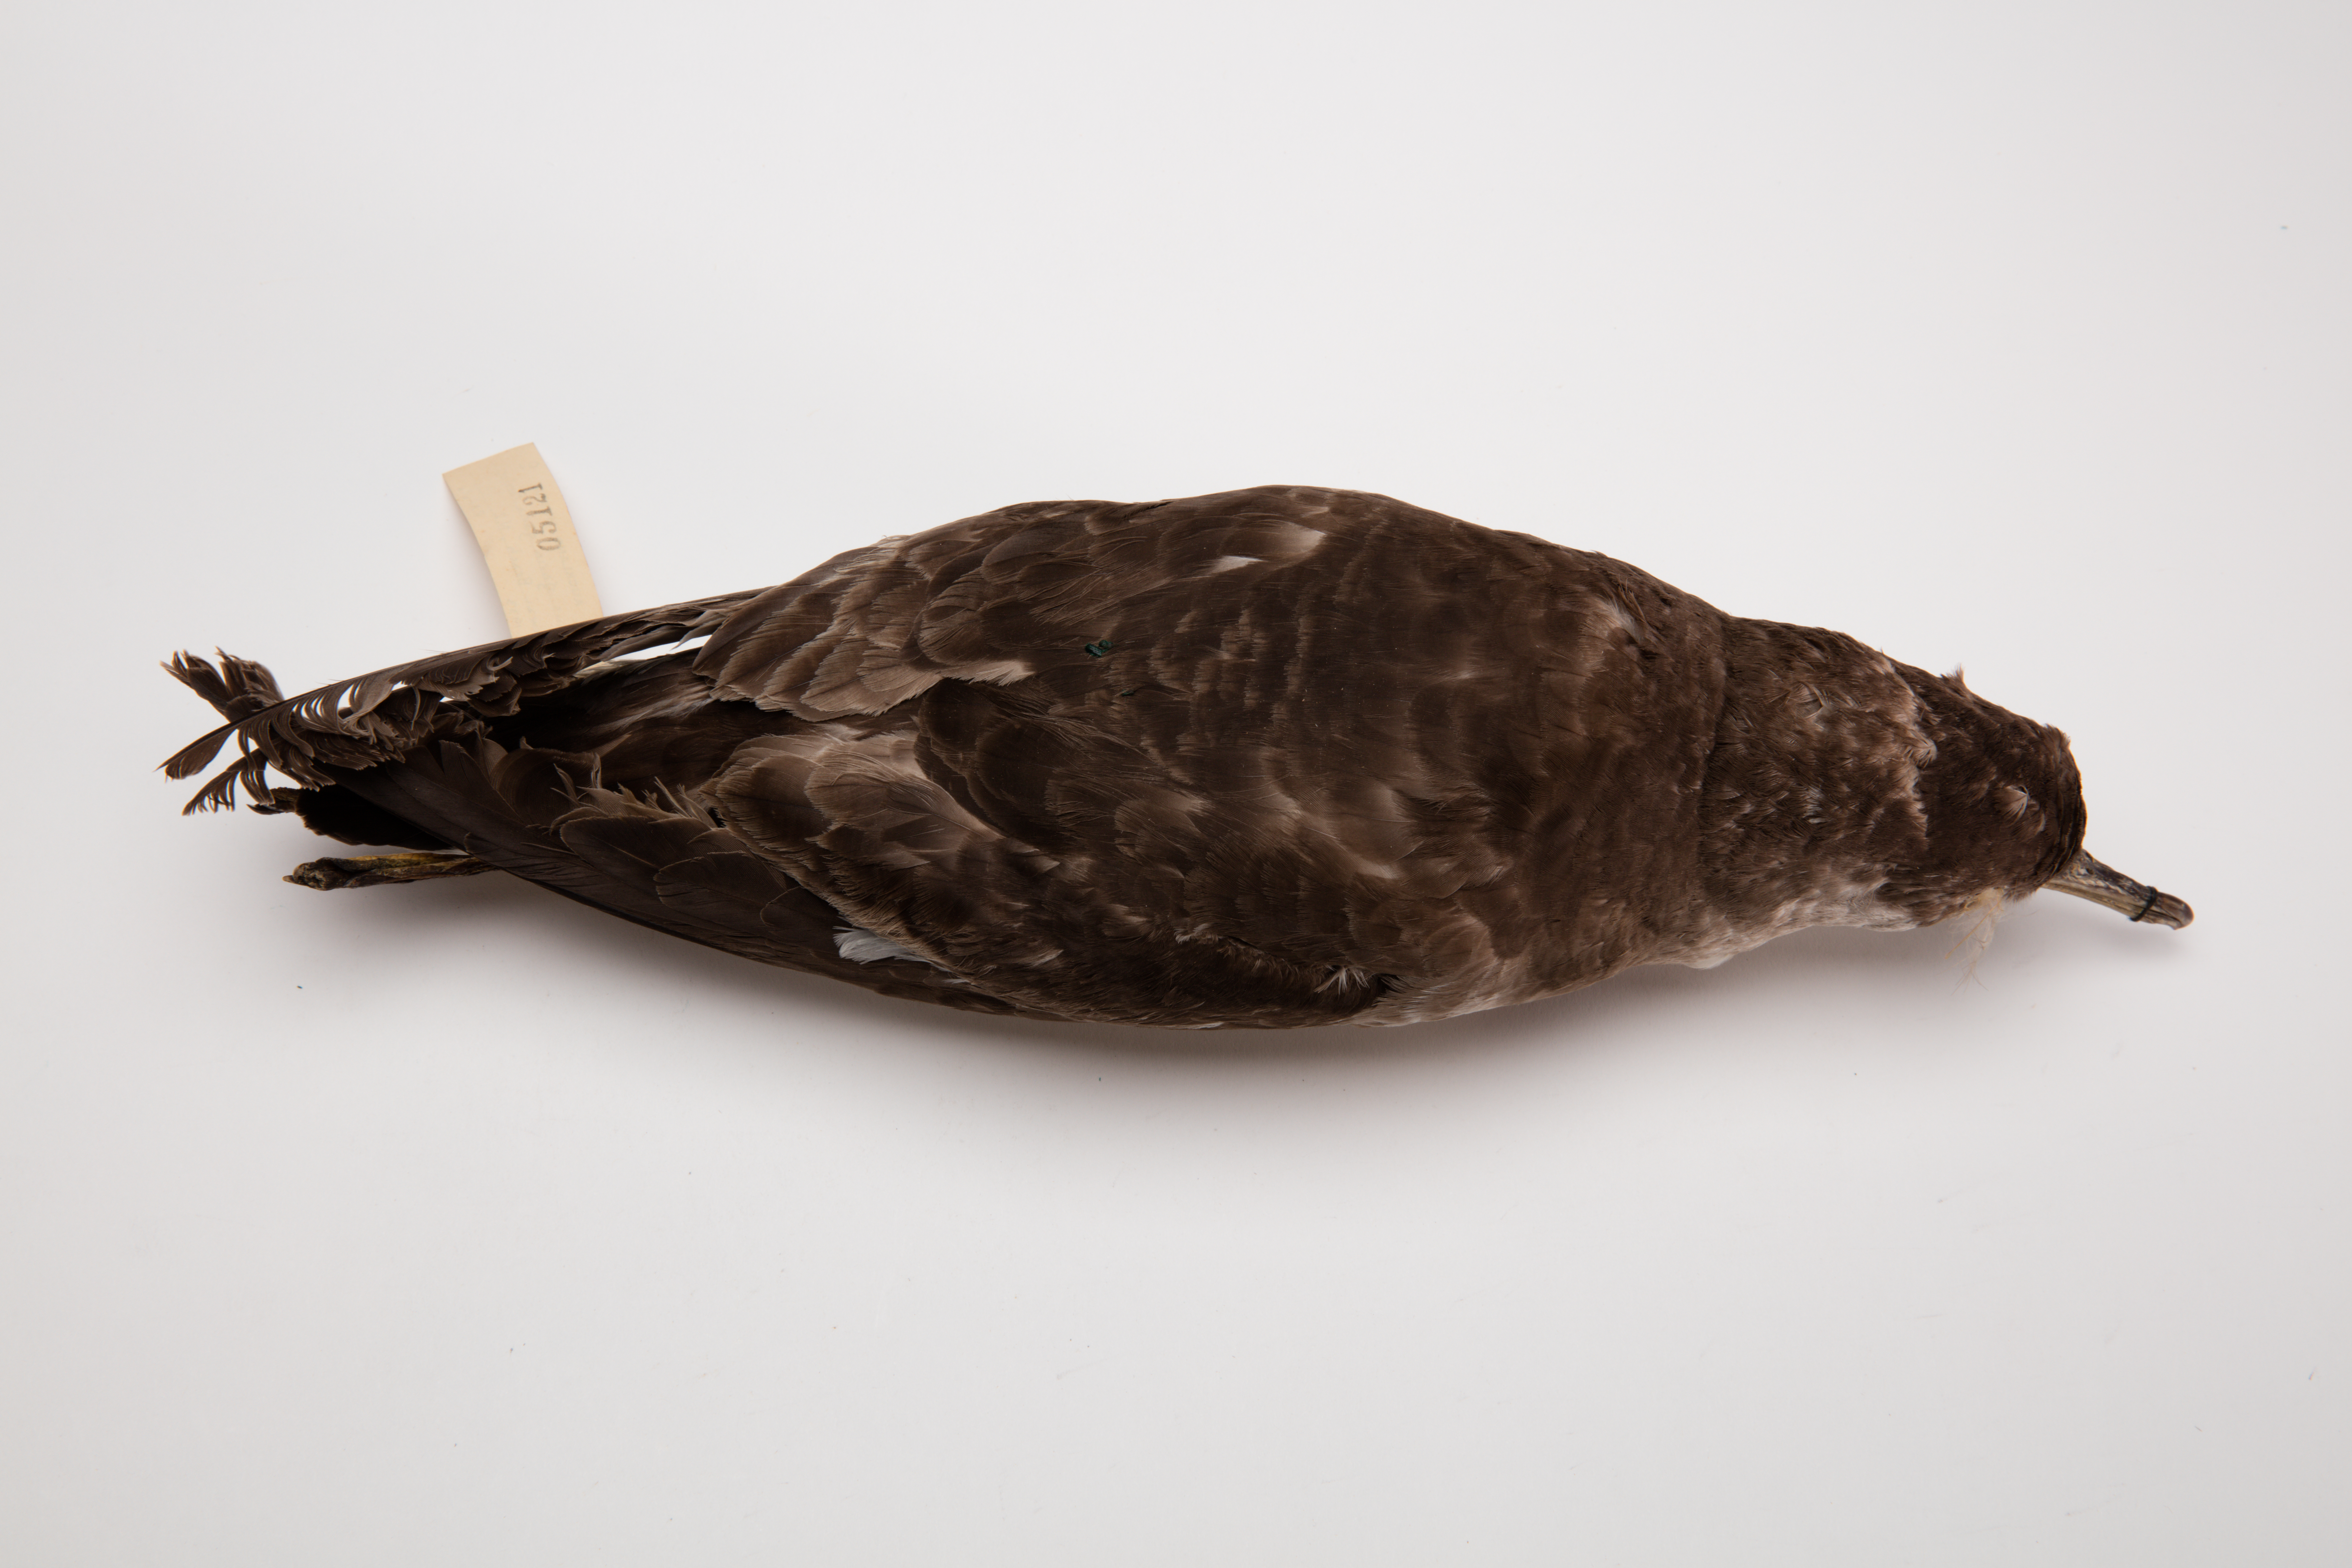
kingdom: Animalia
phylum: Chordata
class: Aves
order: Procellariiformes
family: Procellariidae
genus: Ardenna
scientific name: Ardenna
